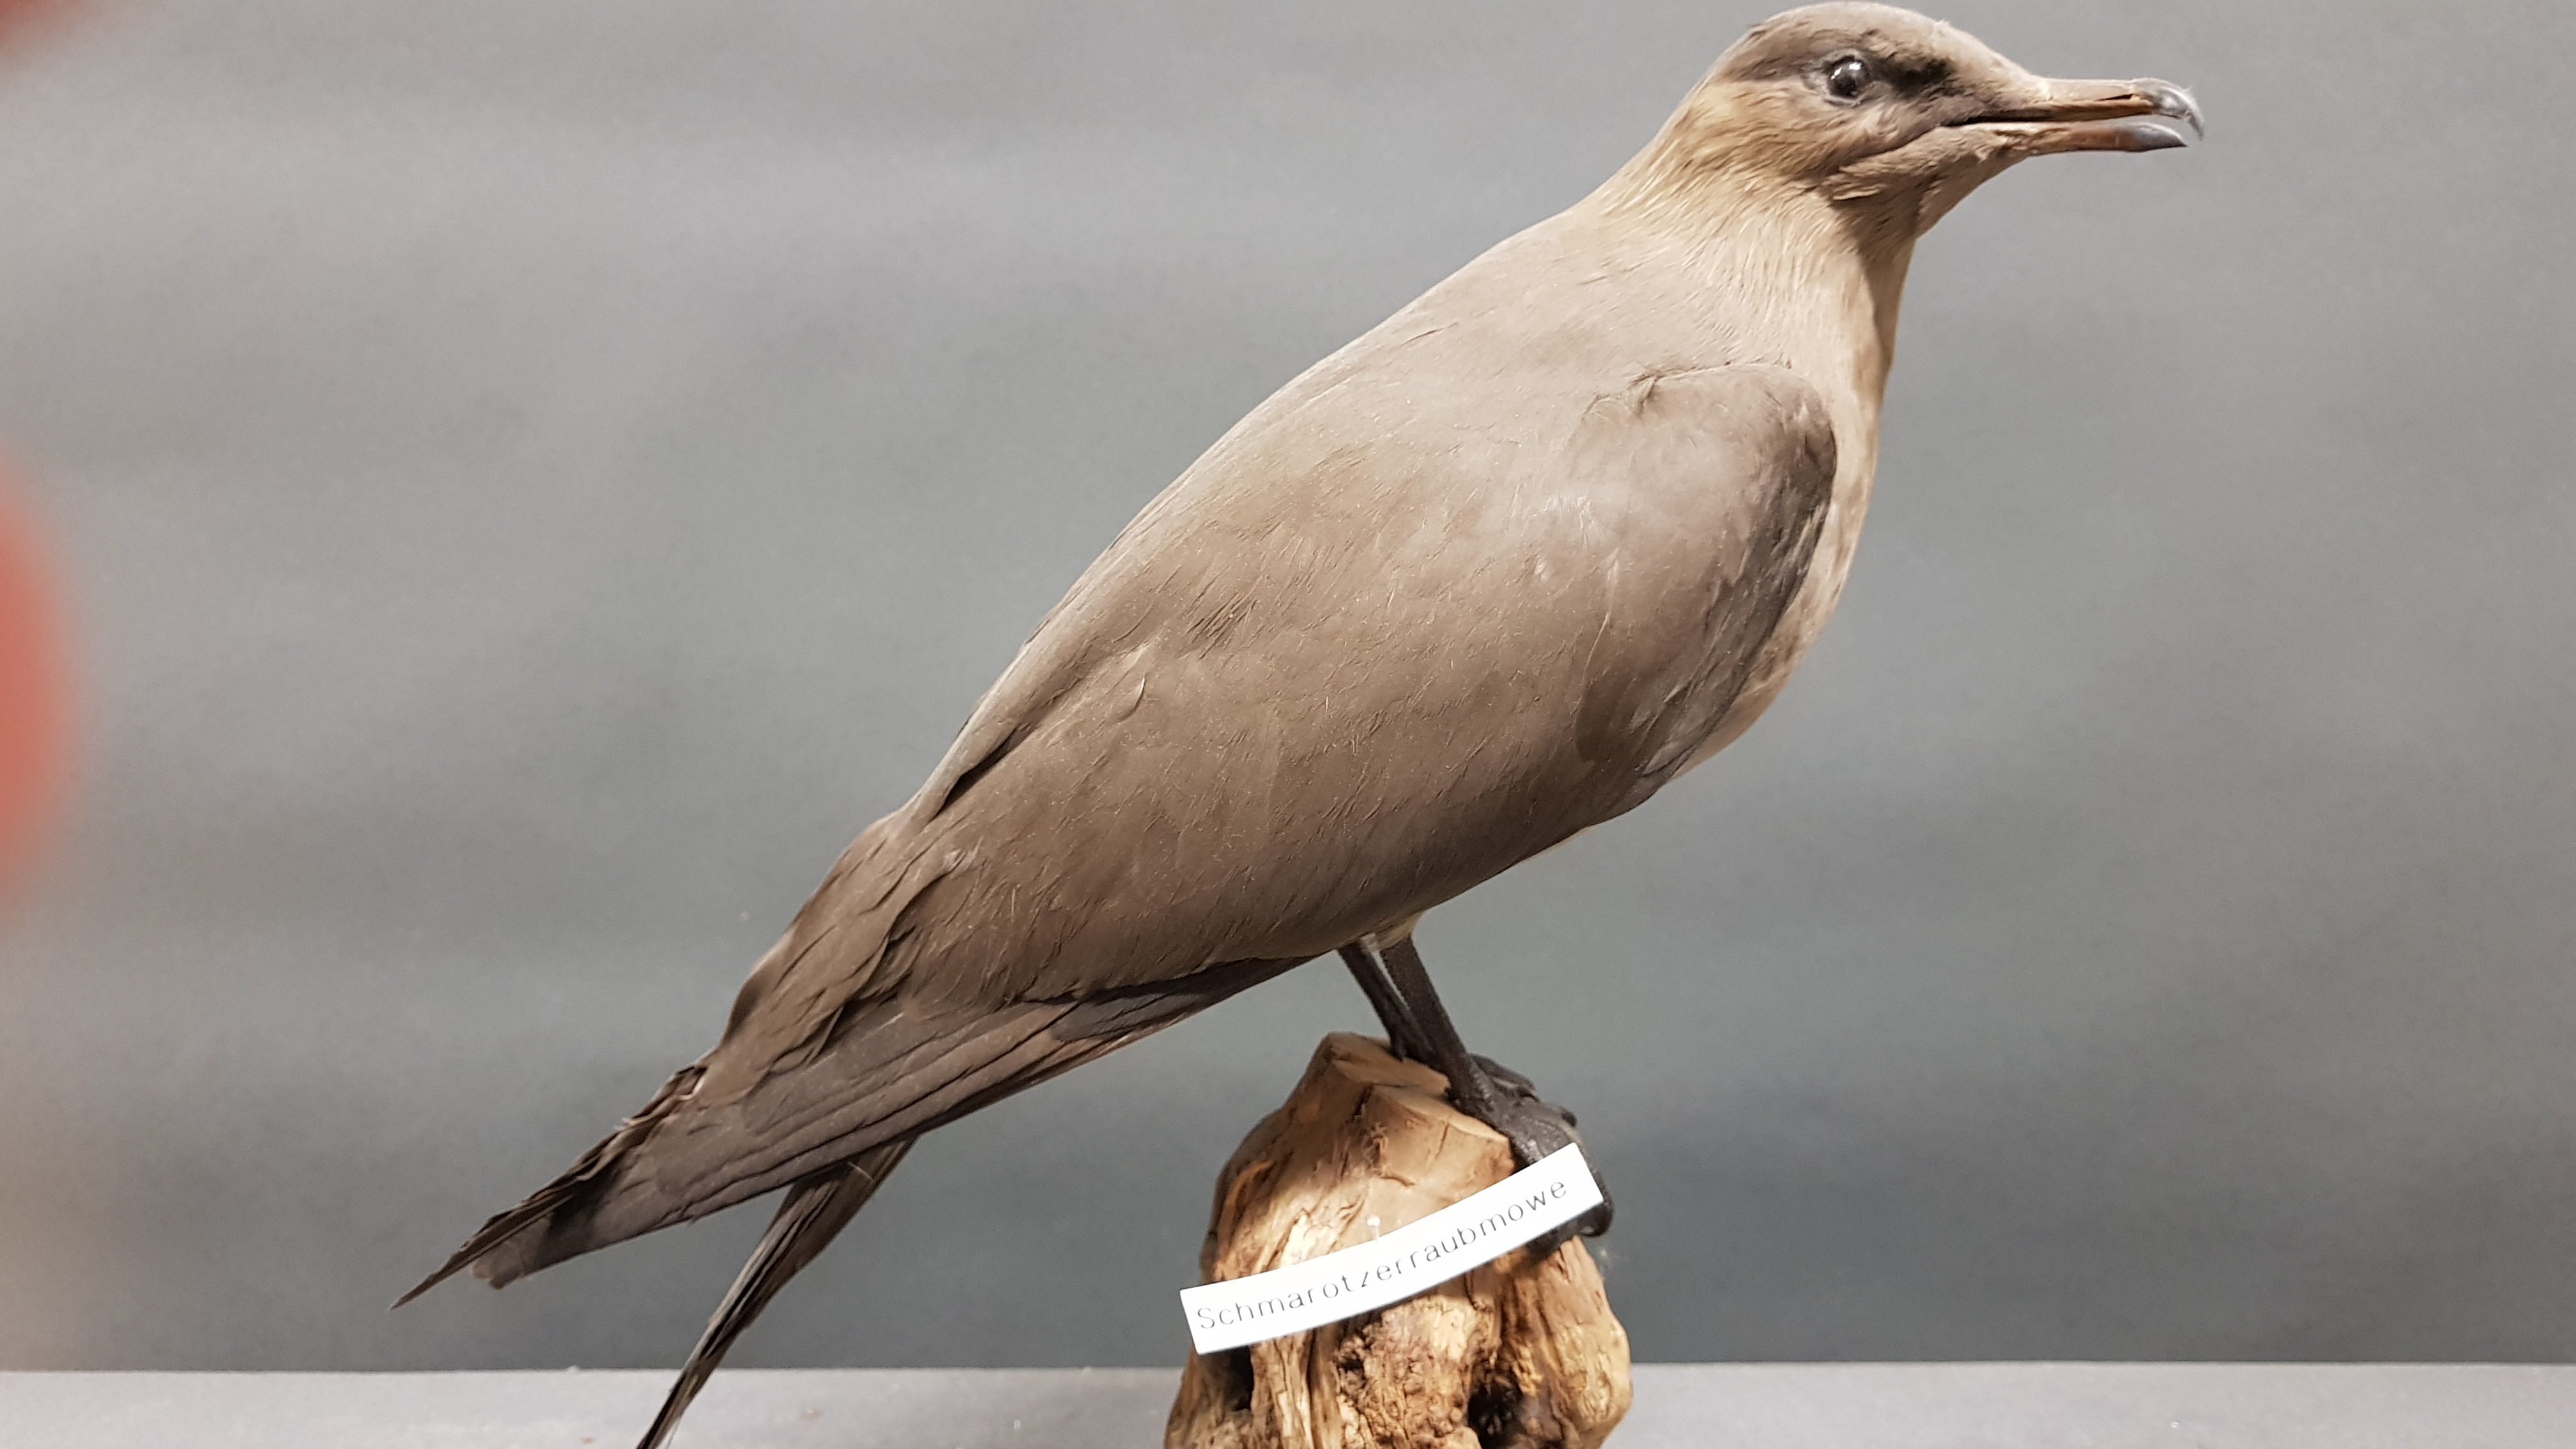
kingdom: Animalia
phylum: Chordata
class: Aves
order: Charadriiformes
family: Stercorariidae
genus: Stercorarius
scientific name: Stercorarius parasiticus
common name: Parasitic jaeger
